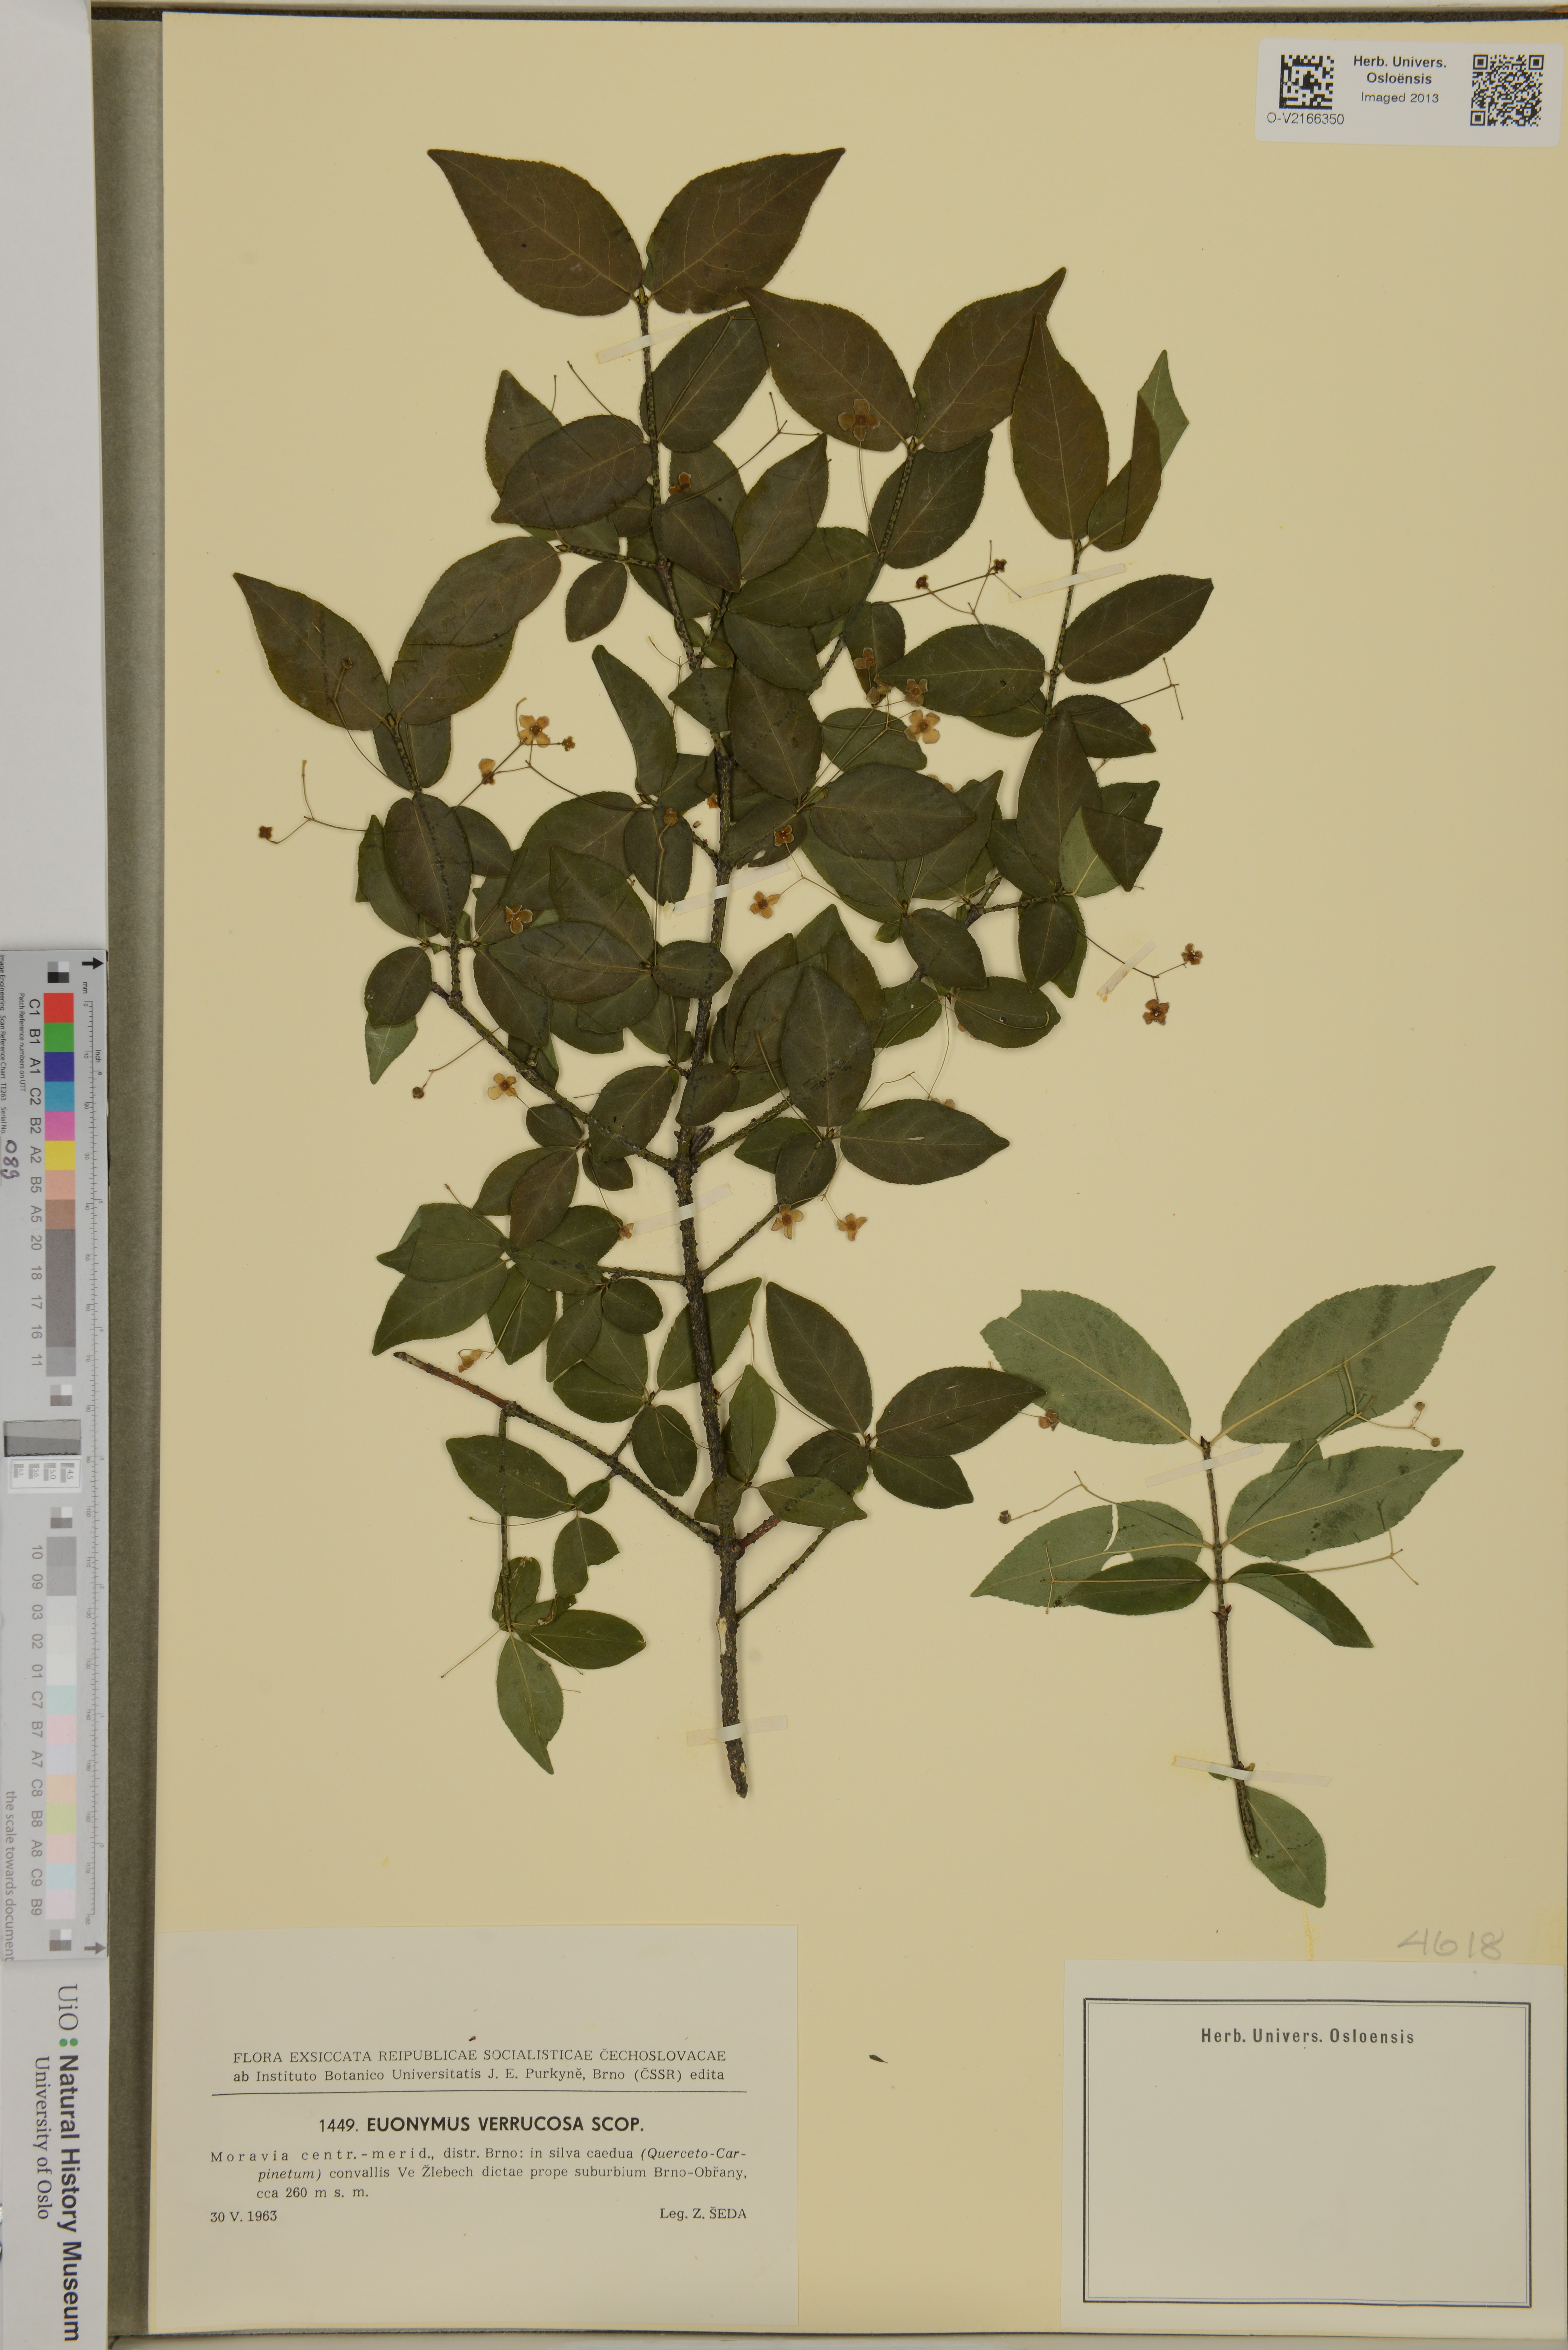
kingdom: Plantae
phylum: Tracheophyta
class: Magnoliopsida
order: Celastrales
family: Celastraceae
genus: Euonymus
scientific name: Euonymus verrucosus
